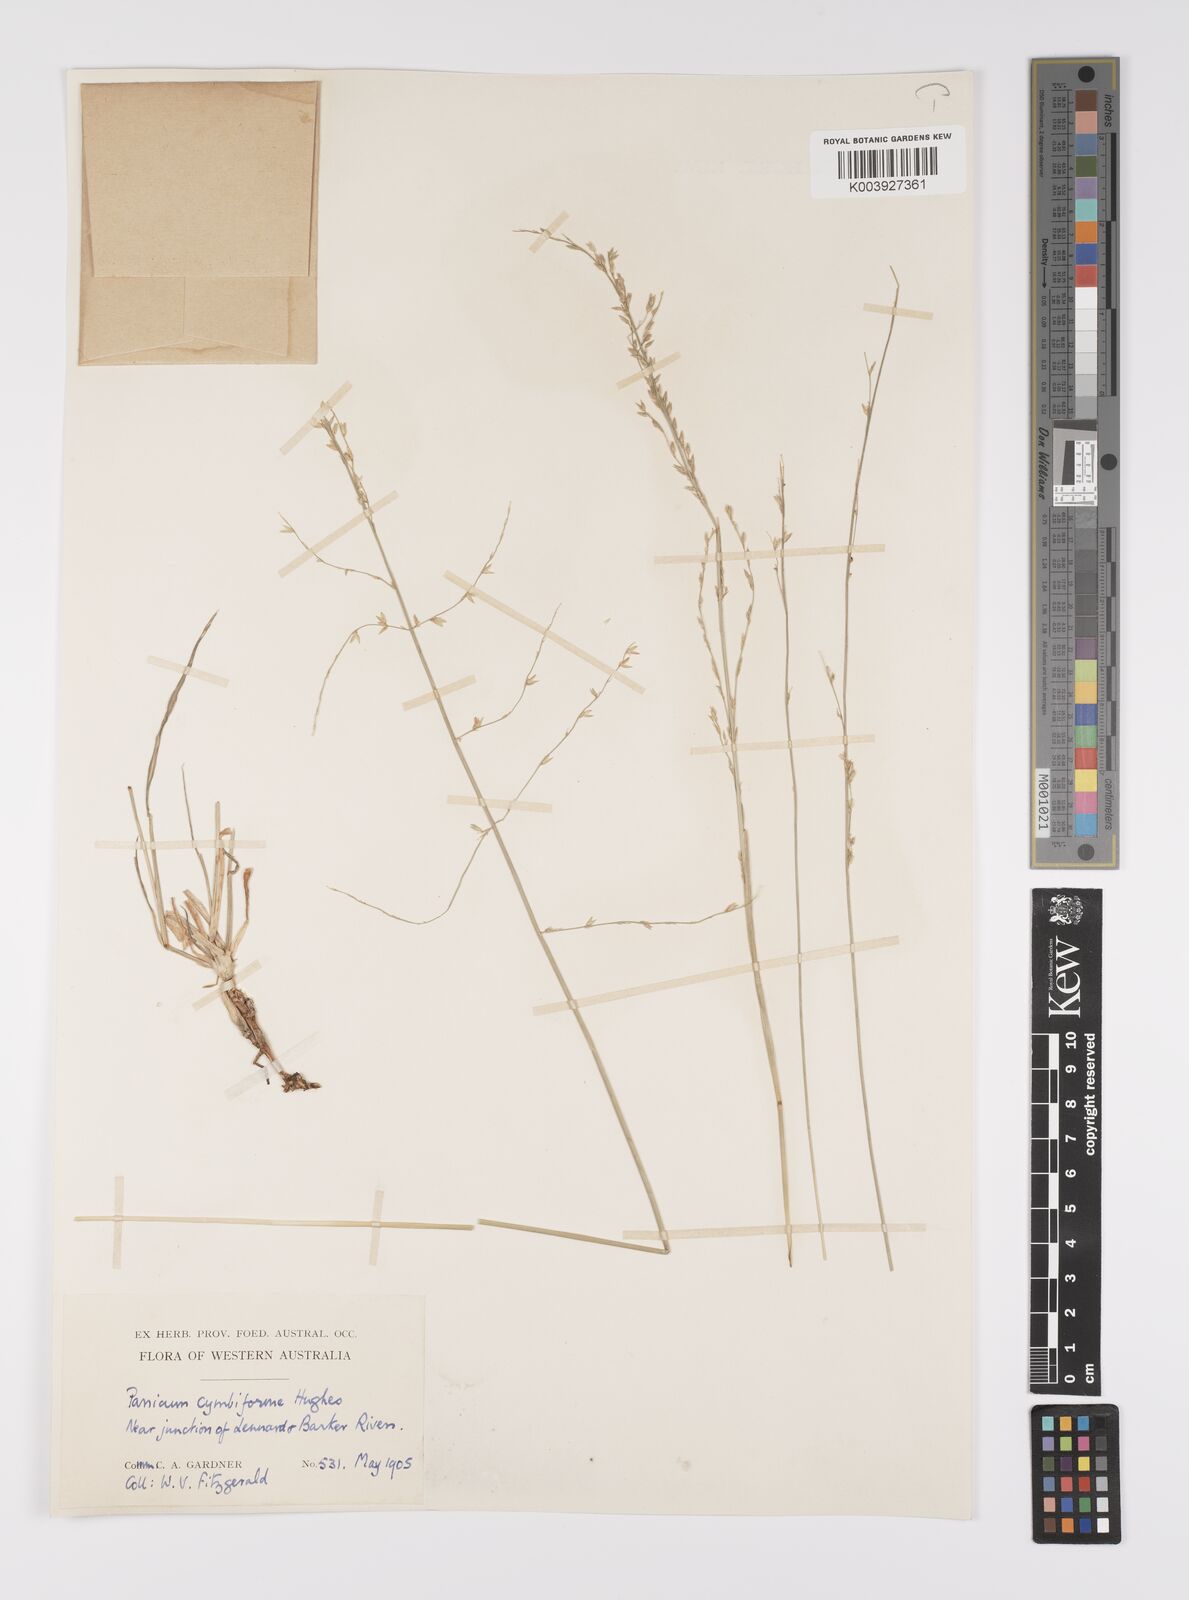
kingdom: Plantae
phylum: Tracheophyta
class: Liliopsida
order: Poales
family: Poaceae
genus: Whiteochloa
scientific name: Whiteochloa cymbiformis
